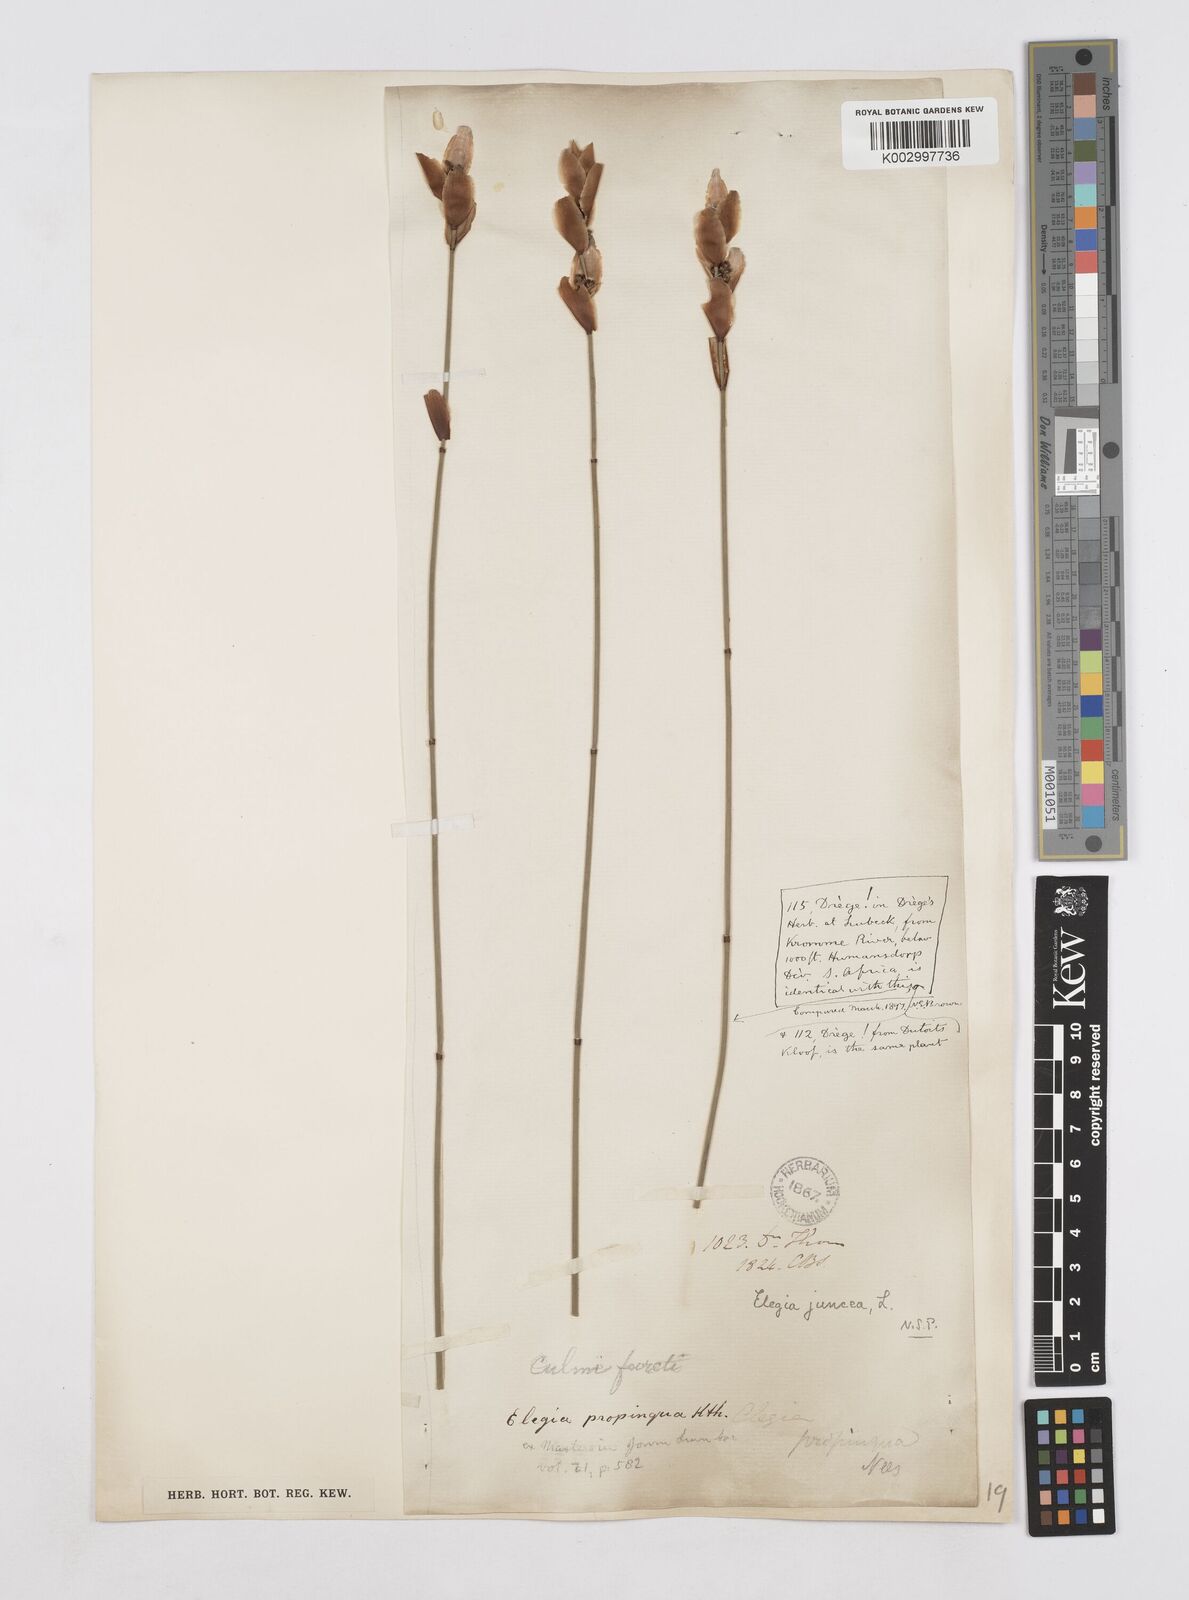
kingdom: Plantae
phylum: Tracheophyta
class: Liliopsida
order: Poales
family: Restionaceae
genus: Elegia
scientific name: Elegia juncea
